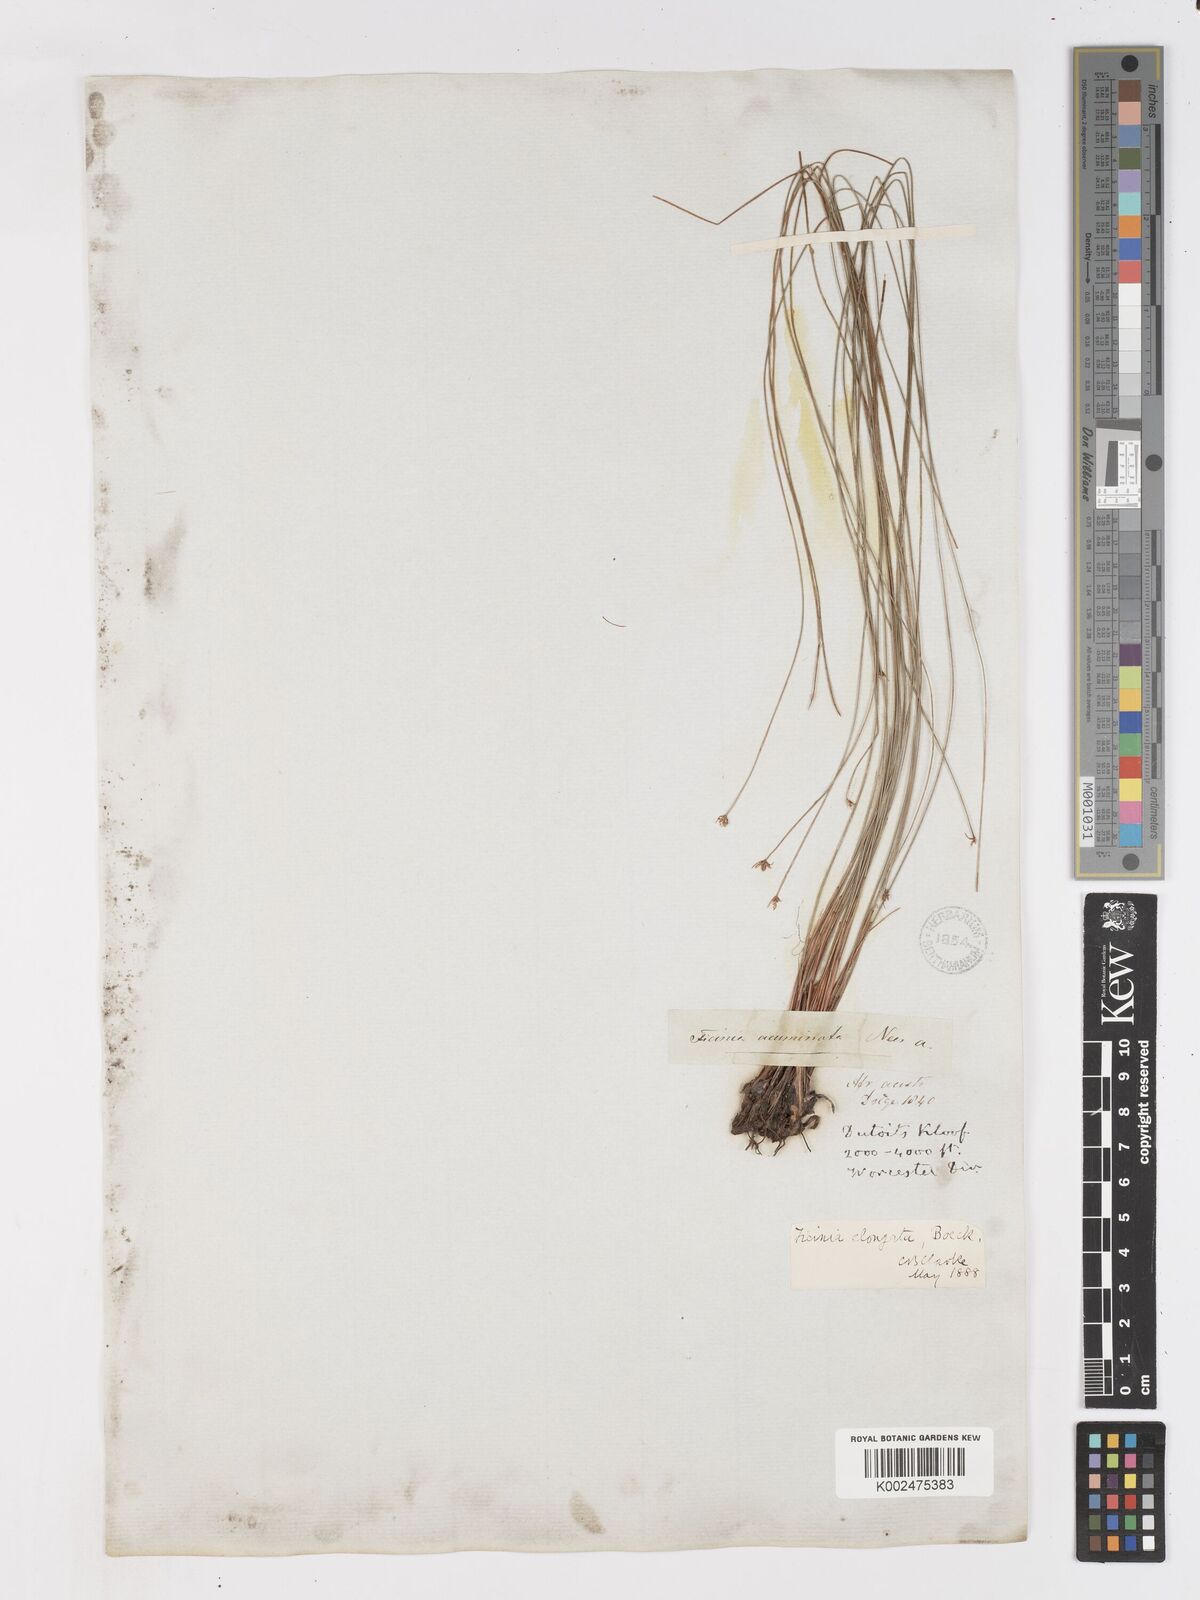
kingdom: Plantae
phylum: Tracheophyta
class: Liliopsida
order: Poales
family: Cyperaceae
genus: Ficinia
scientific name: Ficinia acuminata
